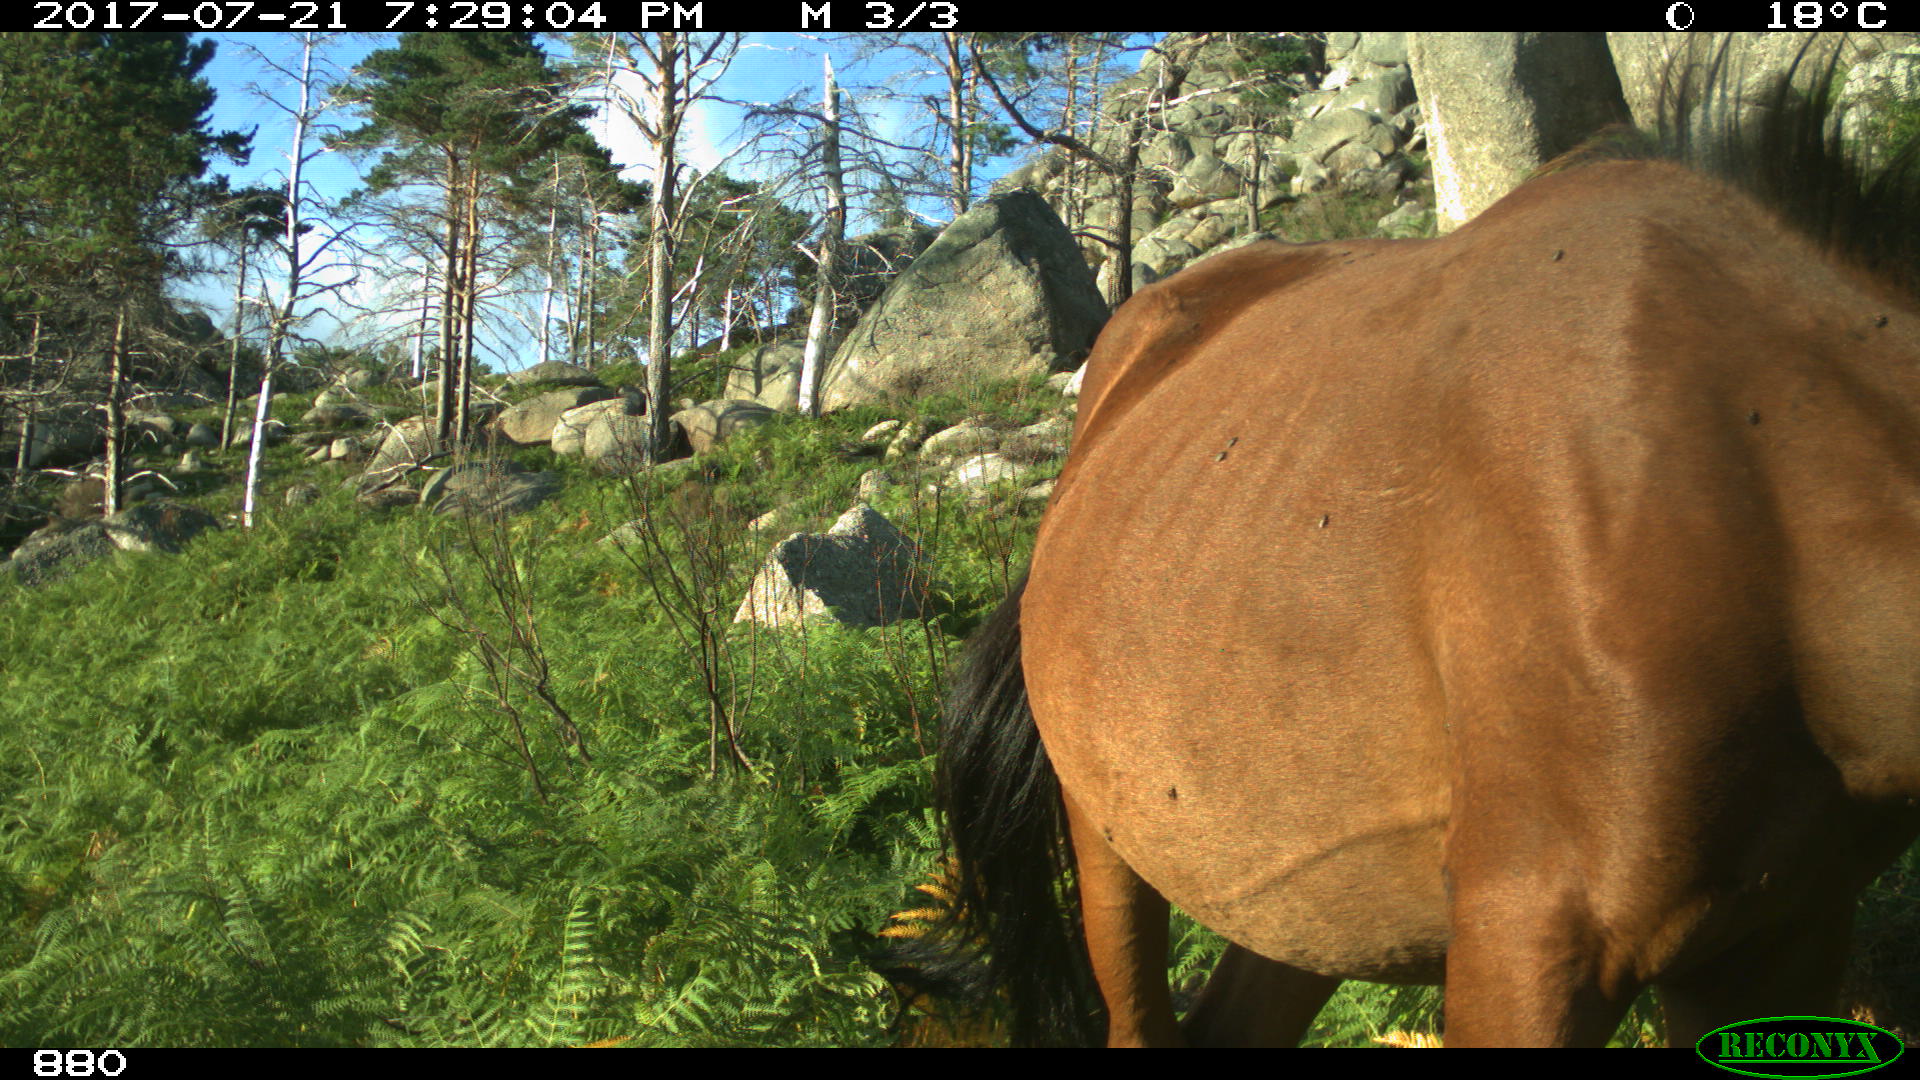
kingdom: Animalia
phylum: Chordata
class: Mammalia
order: Perissodactyla
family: Equidae
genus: Equus
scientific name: Equus caballus
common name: Horse
